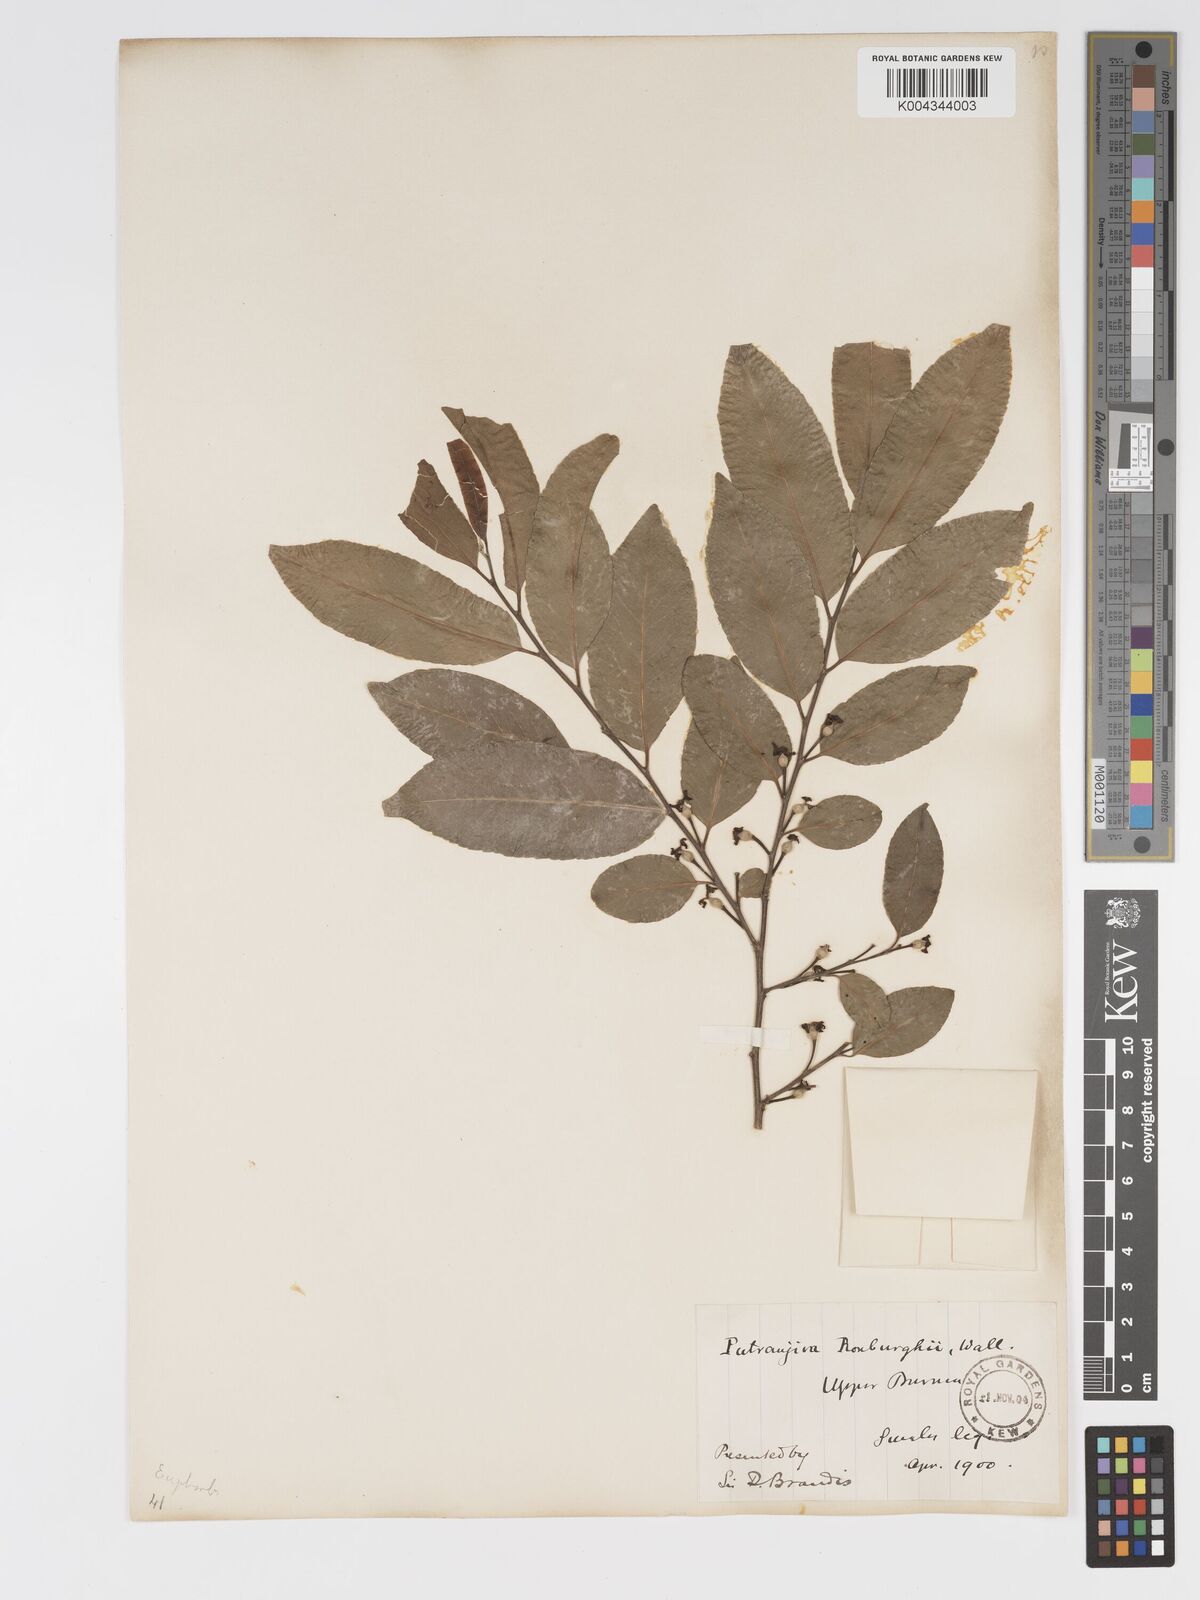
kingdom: Plantae
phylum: Tracheophyta
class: Magnoliopsida
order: Malpighiales
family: Putranjivaceae
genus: Putranjiva
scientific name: Putranjiva roxburghii
